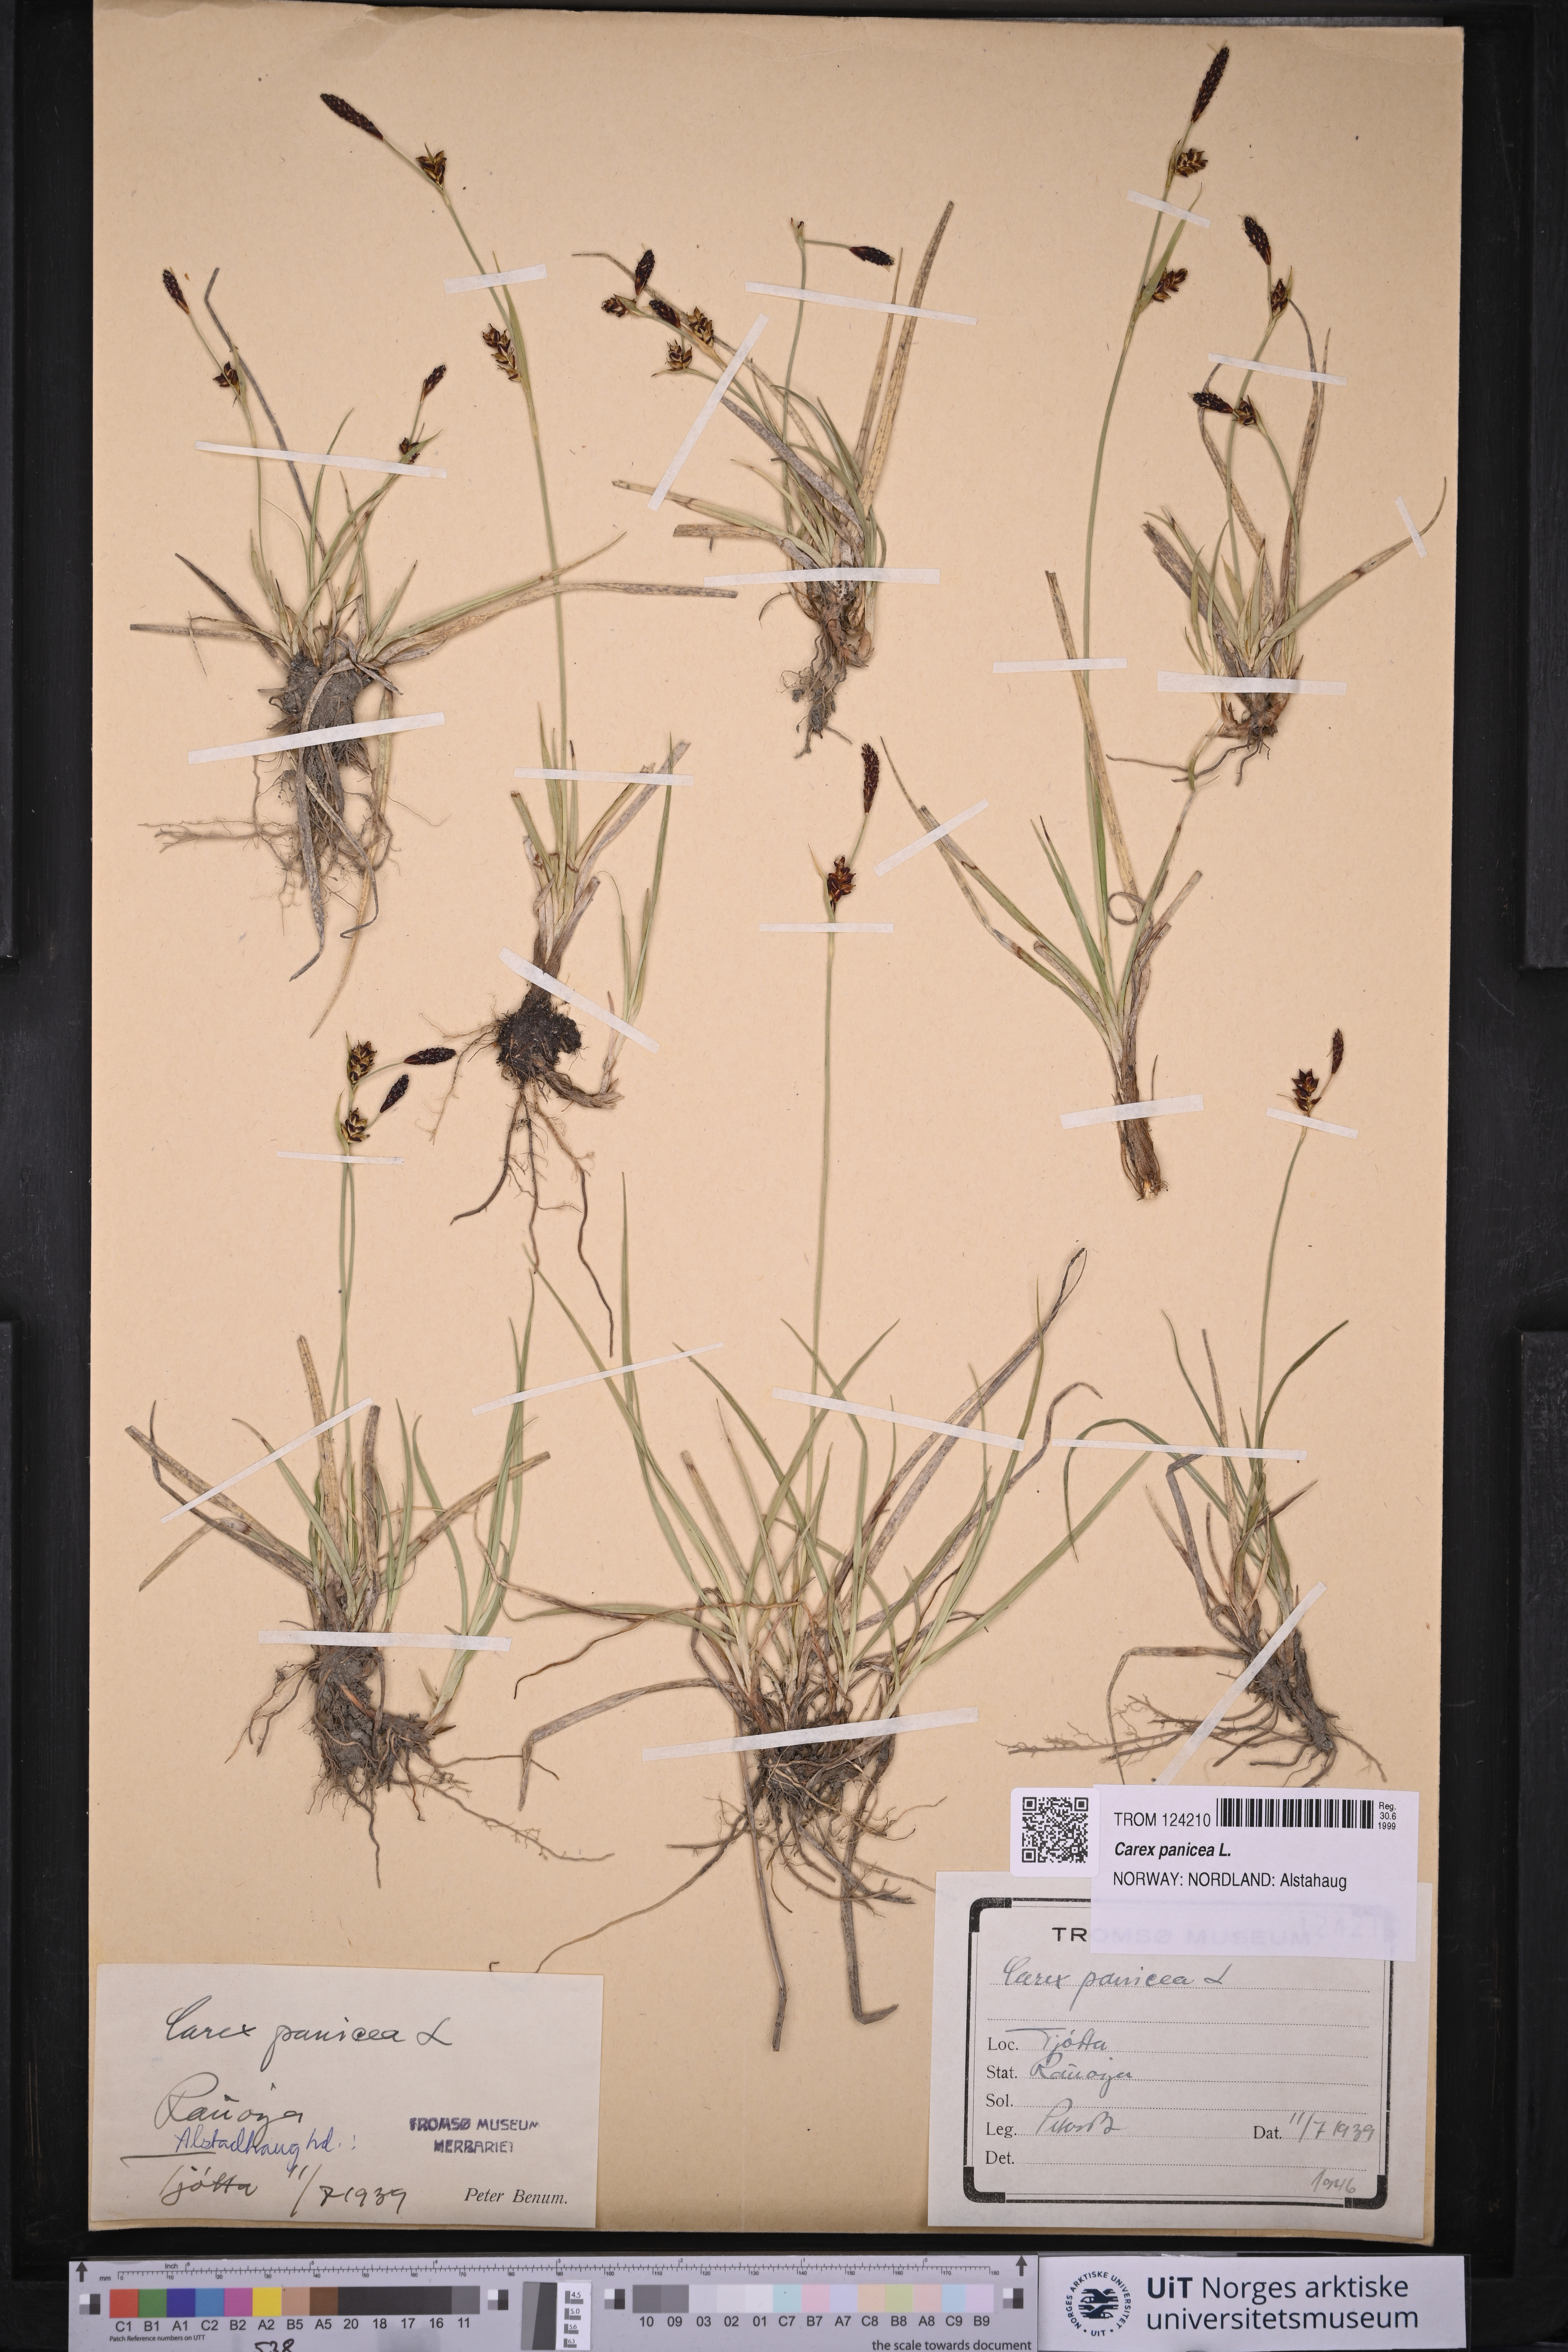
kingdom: Plantae
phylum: Tracheophyta
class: Liliopsida
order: Poales
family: Cyperaceae
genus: Carex
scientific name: Carex panicea
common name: Carnation sedge
